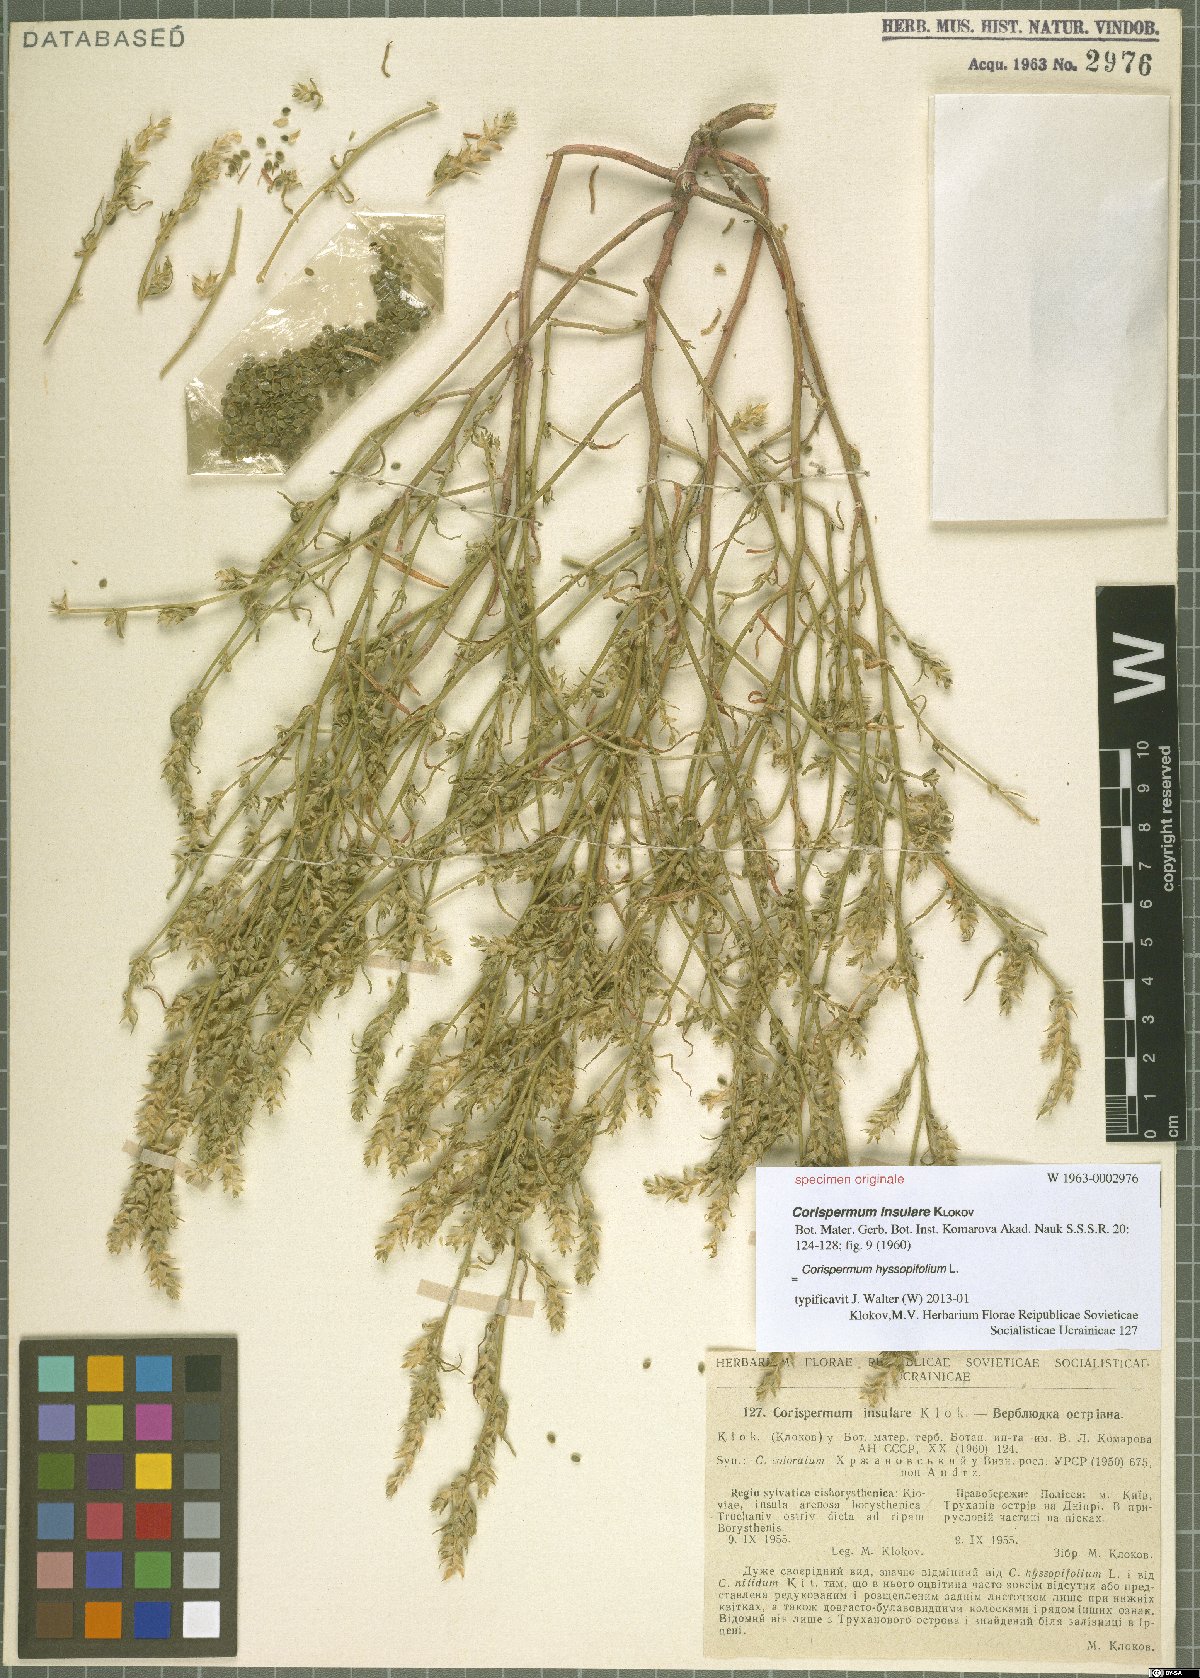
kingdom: Plantae
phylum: Tracheophyta
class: Magnoliopsida
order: Caryophyllales
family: Amaranthaceae
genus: Corispermum
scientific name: Corispermum hyssopifolium
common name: Bugseed
